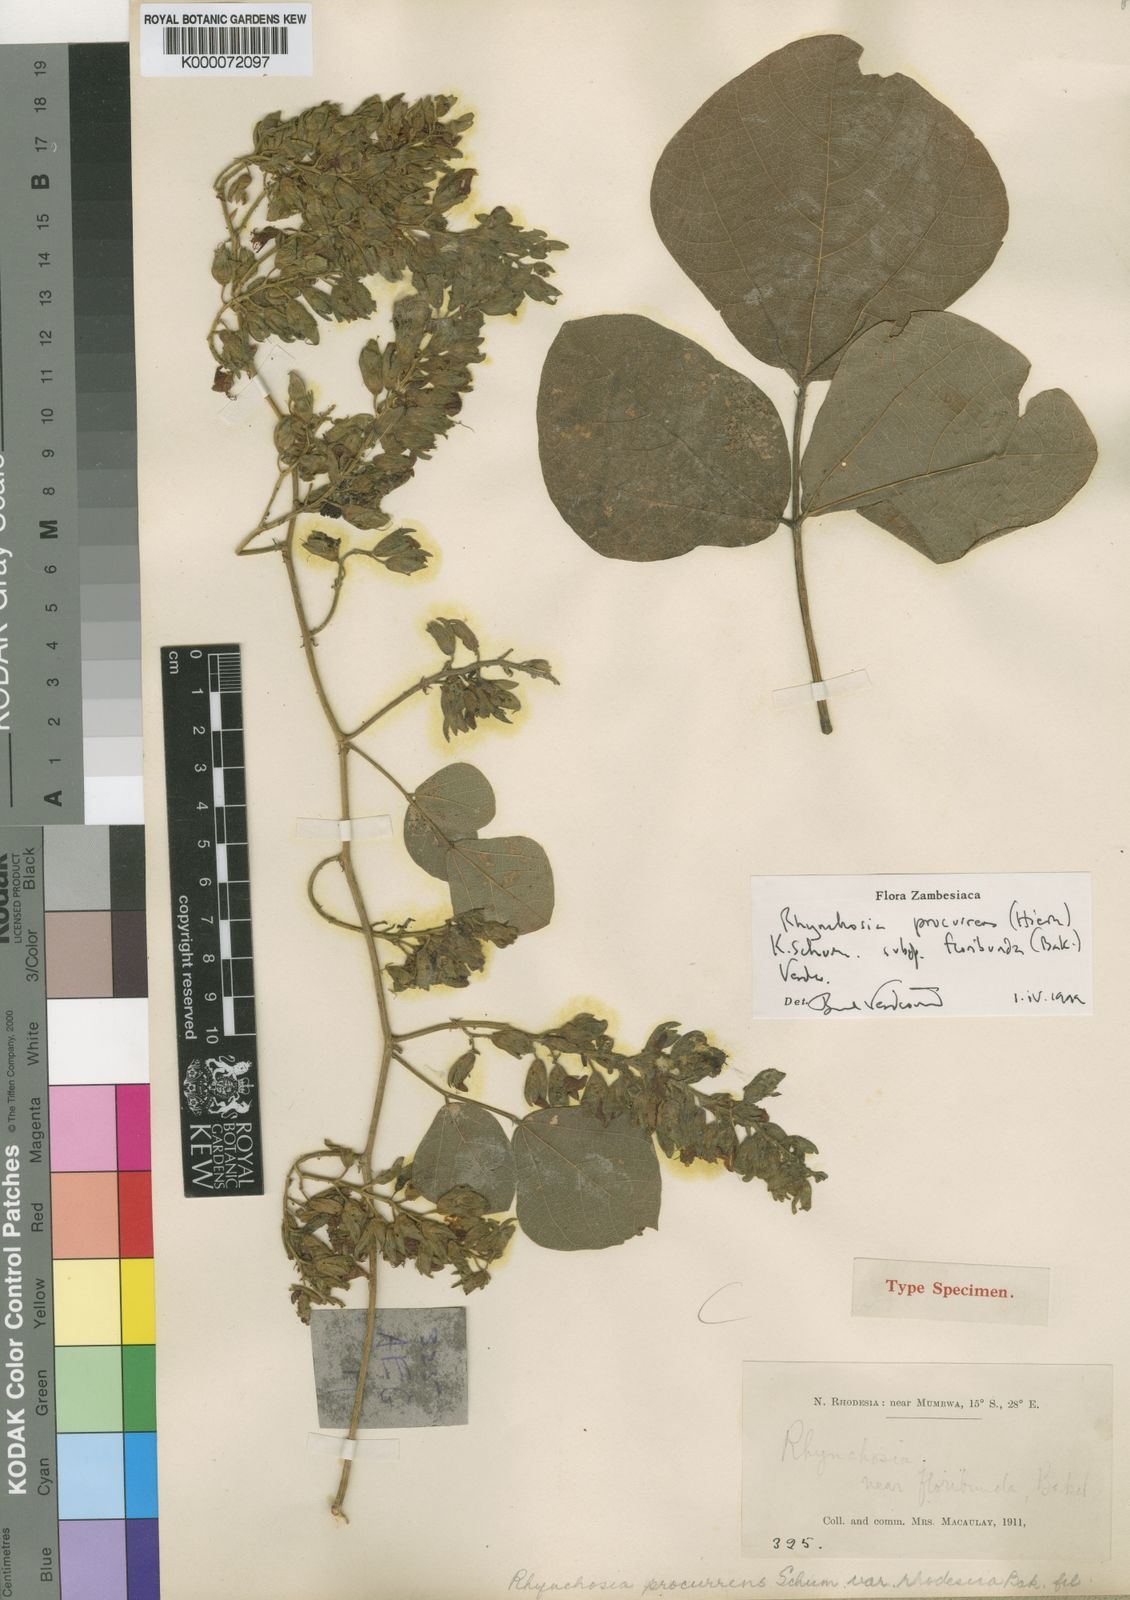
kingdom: Plantae
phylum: Tracheophyta
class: Magnoliopsida
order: Fabales
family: Fabaceae
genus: Rhynchosia
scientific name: Rhynchosia procurrens
